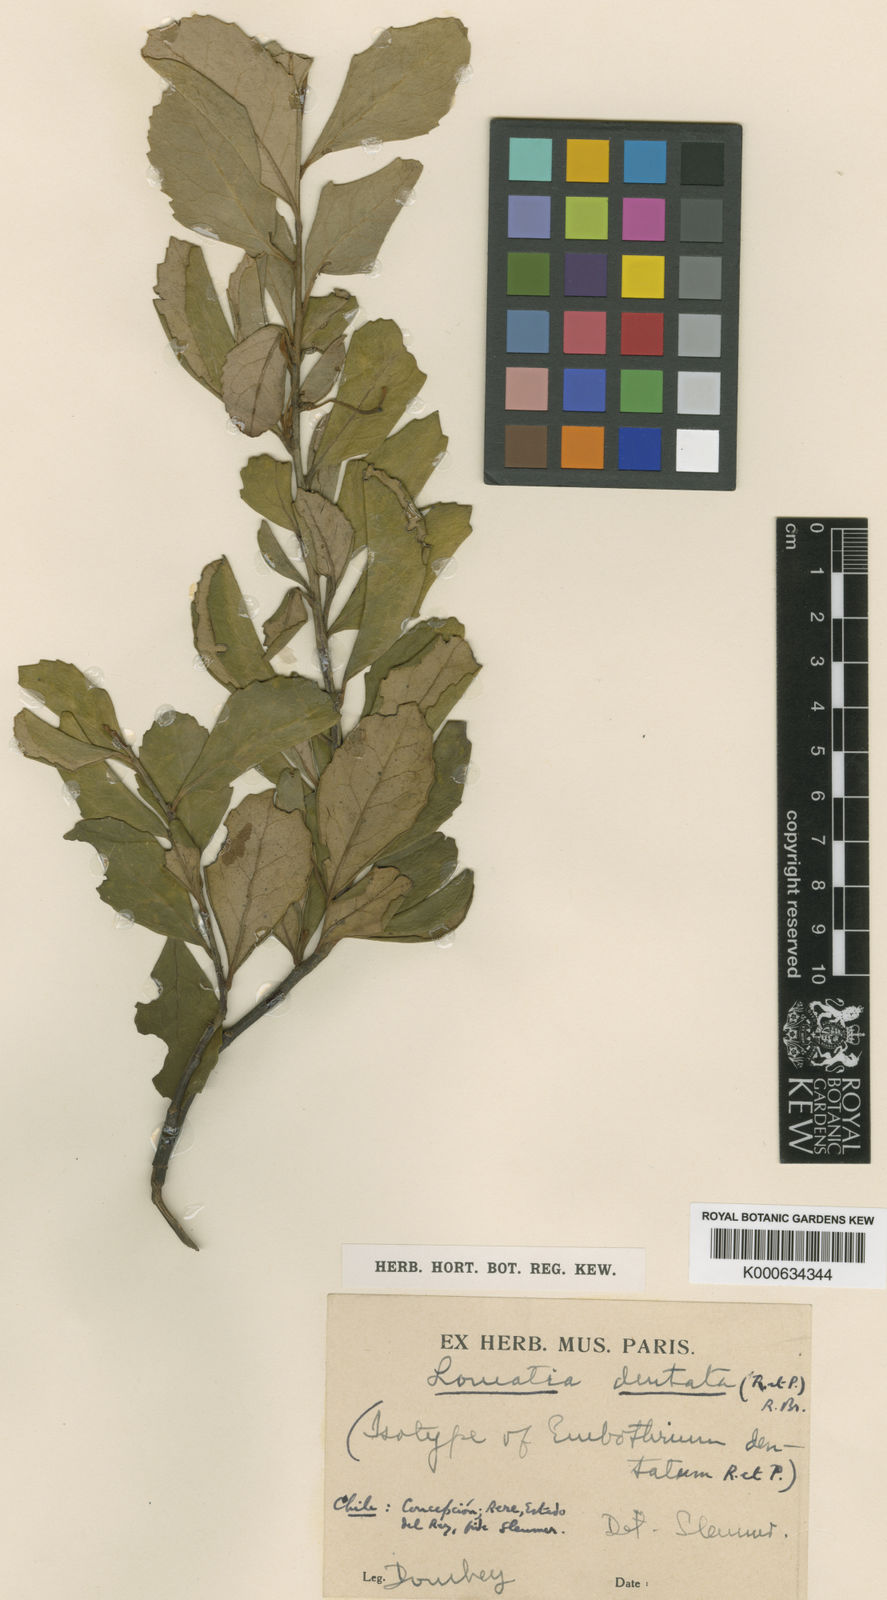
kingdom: Plantae
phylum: Tracheophyta
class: Magnoliopsida
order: Proteales
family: Proteaceae
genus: Lomatia
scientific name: Lomatia dentata
